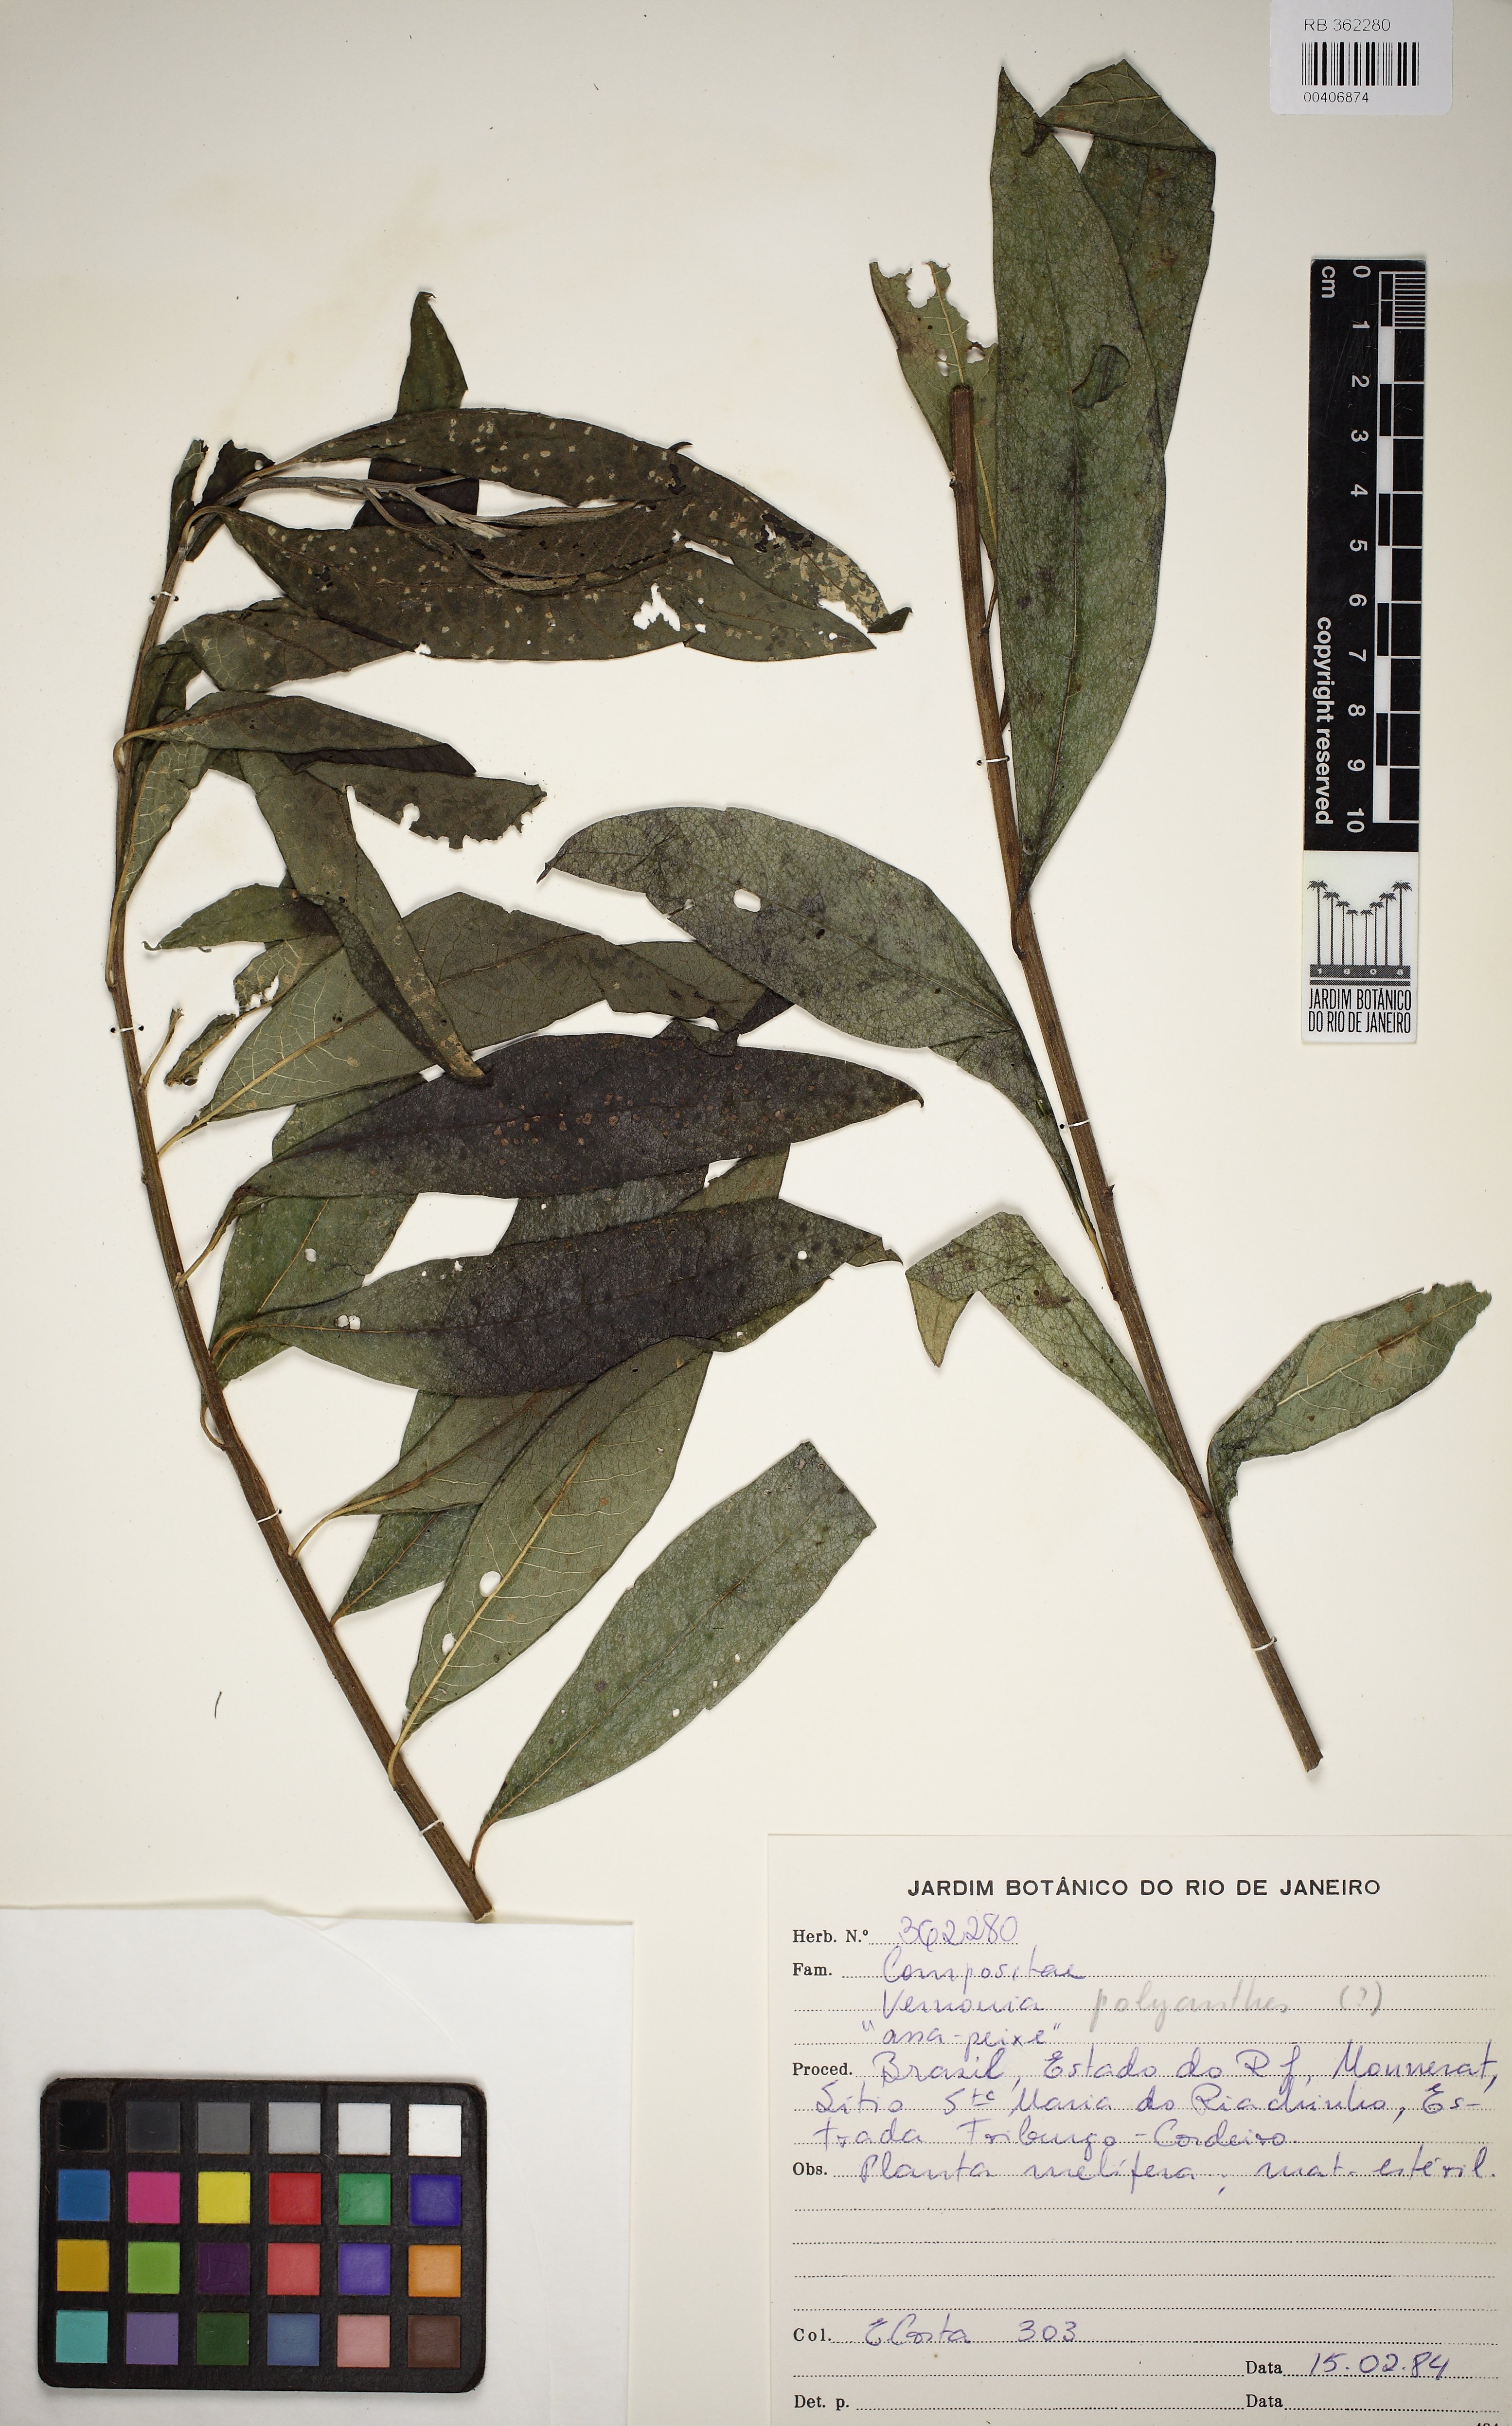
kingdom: Plantae
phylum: Tracheophyta
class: Magnoliopsida
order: Asterales
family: Asteraceae
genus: Vernonanthura
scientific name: Vernonanthura polyanthes
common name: Tree aster
